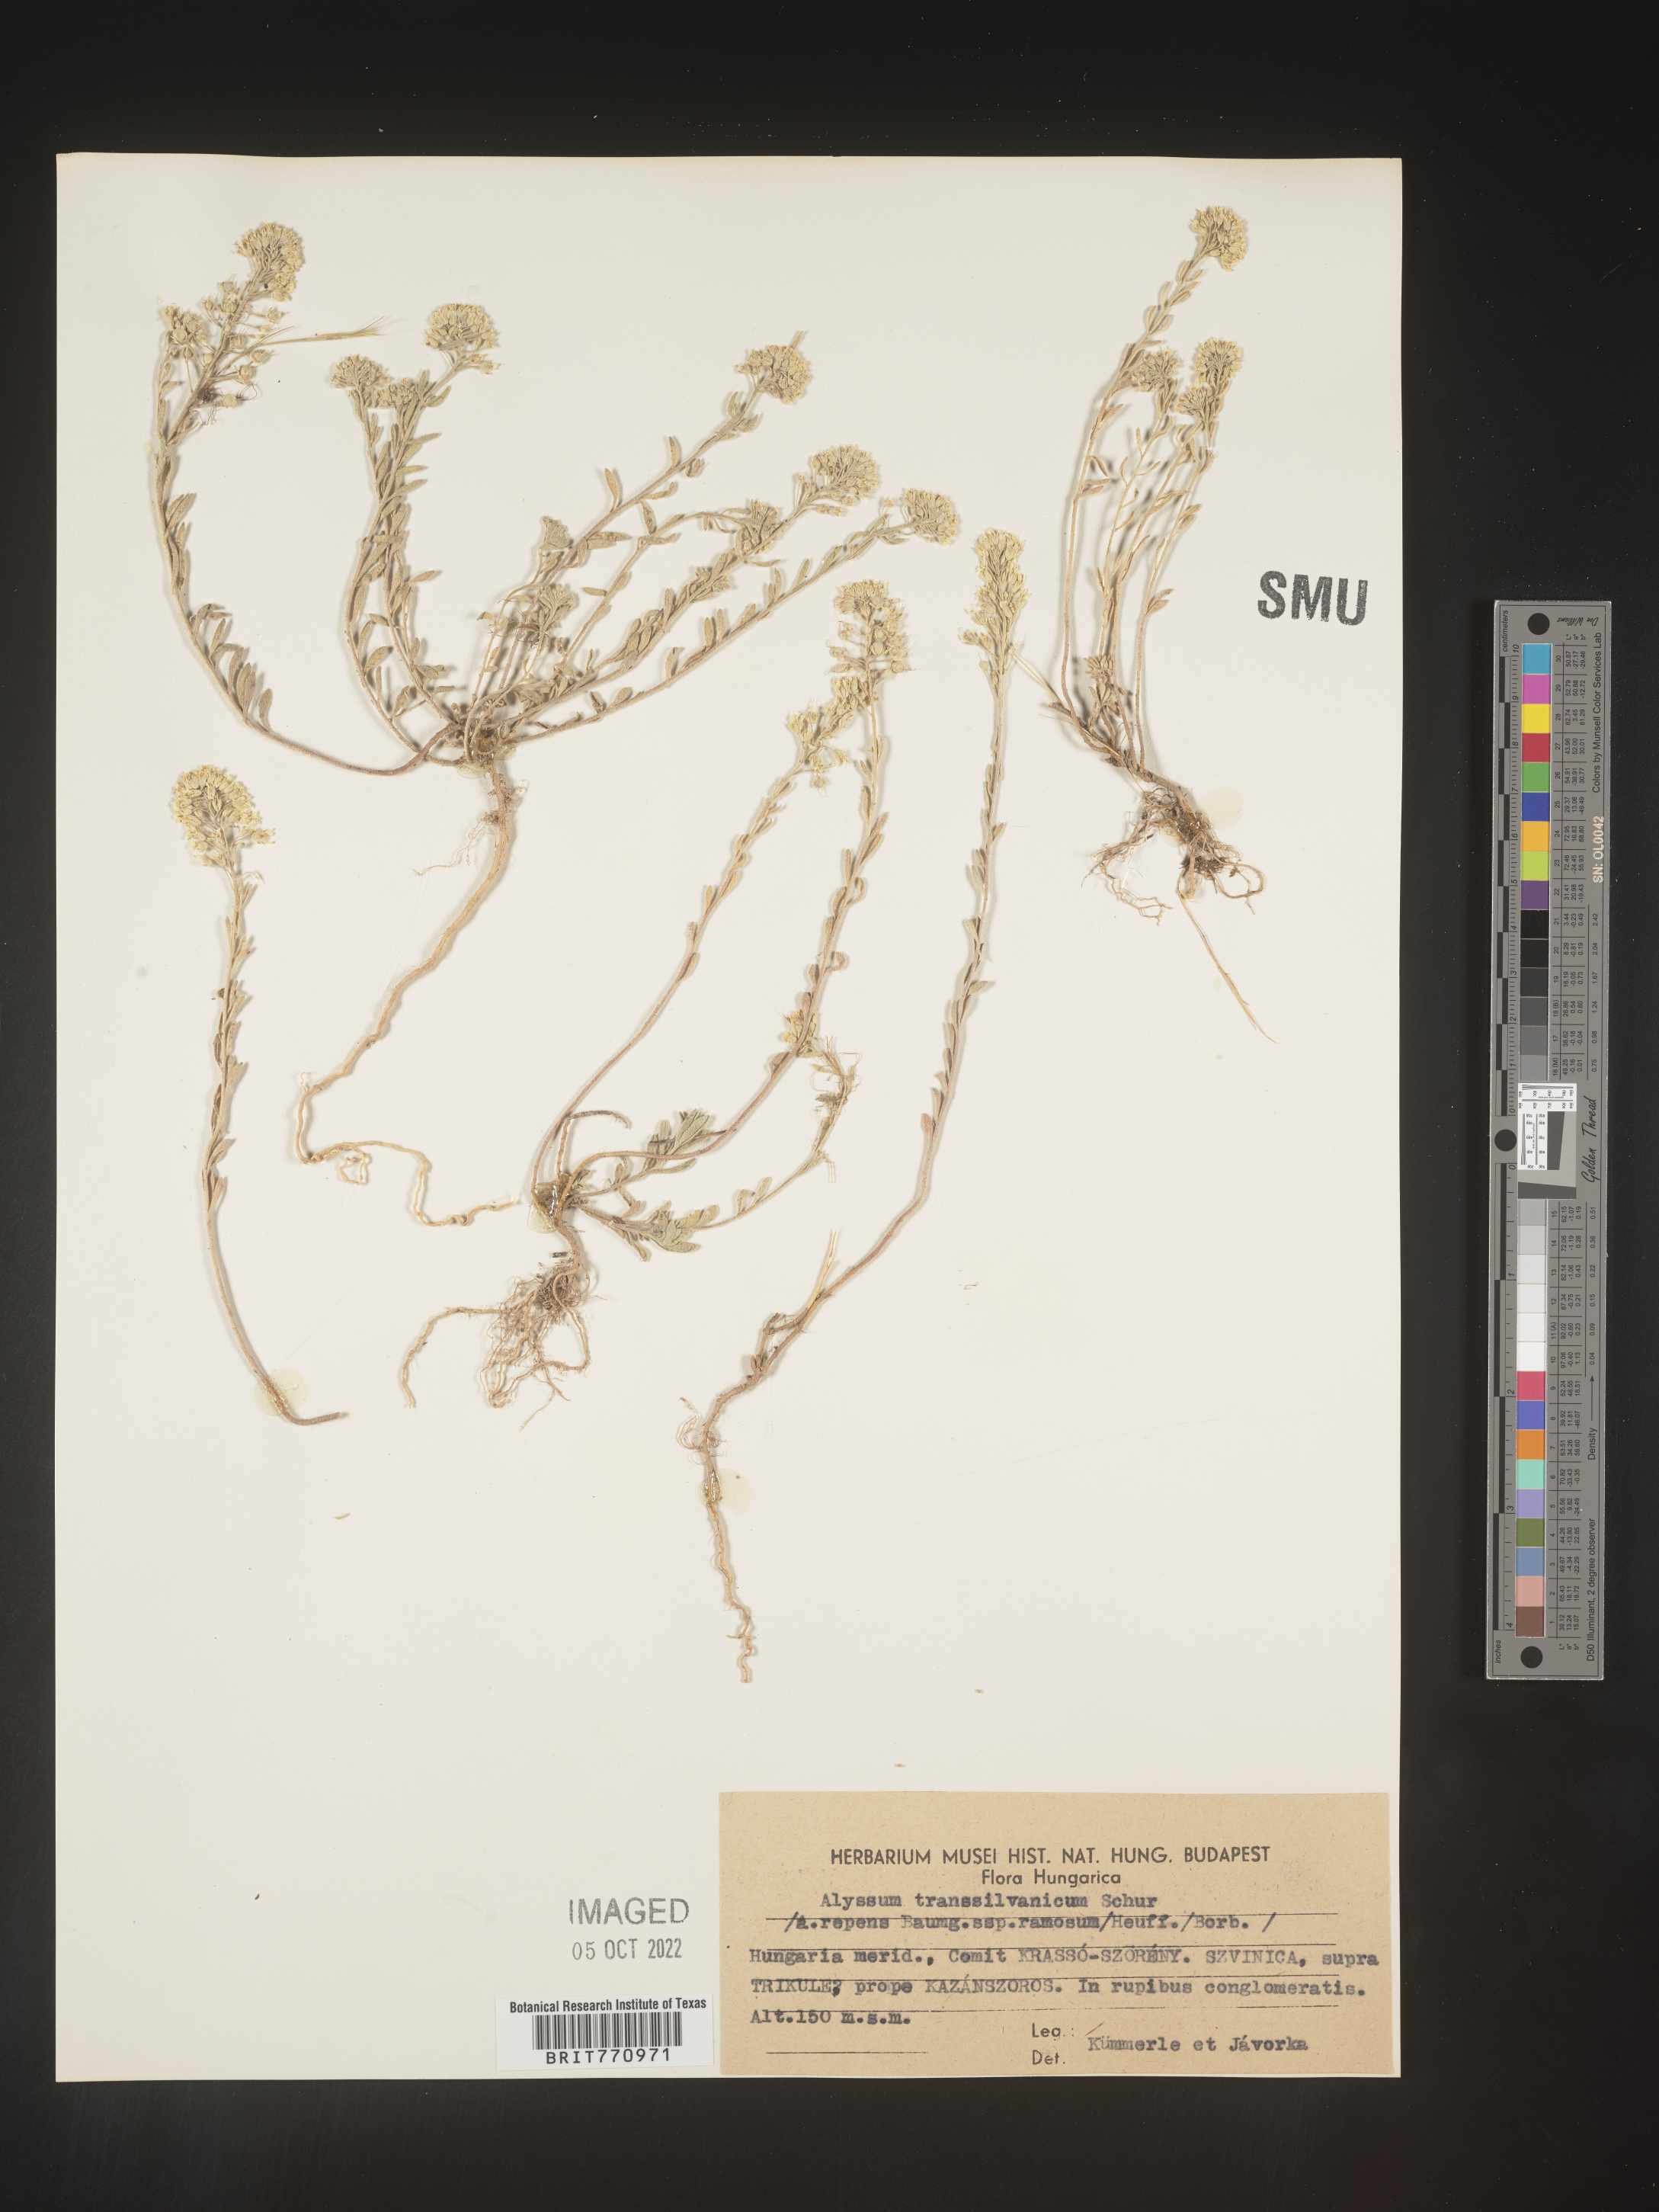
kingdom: Plantae
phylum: Tracheophyta
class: Magnoliopsida
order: Brassicales
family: Brassicaceae
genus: Alyssum
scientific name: Alyssum
